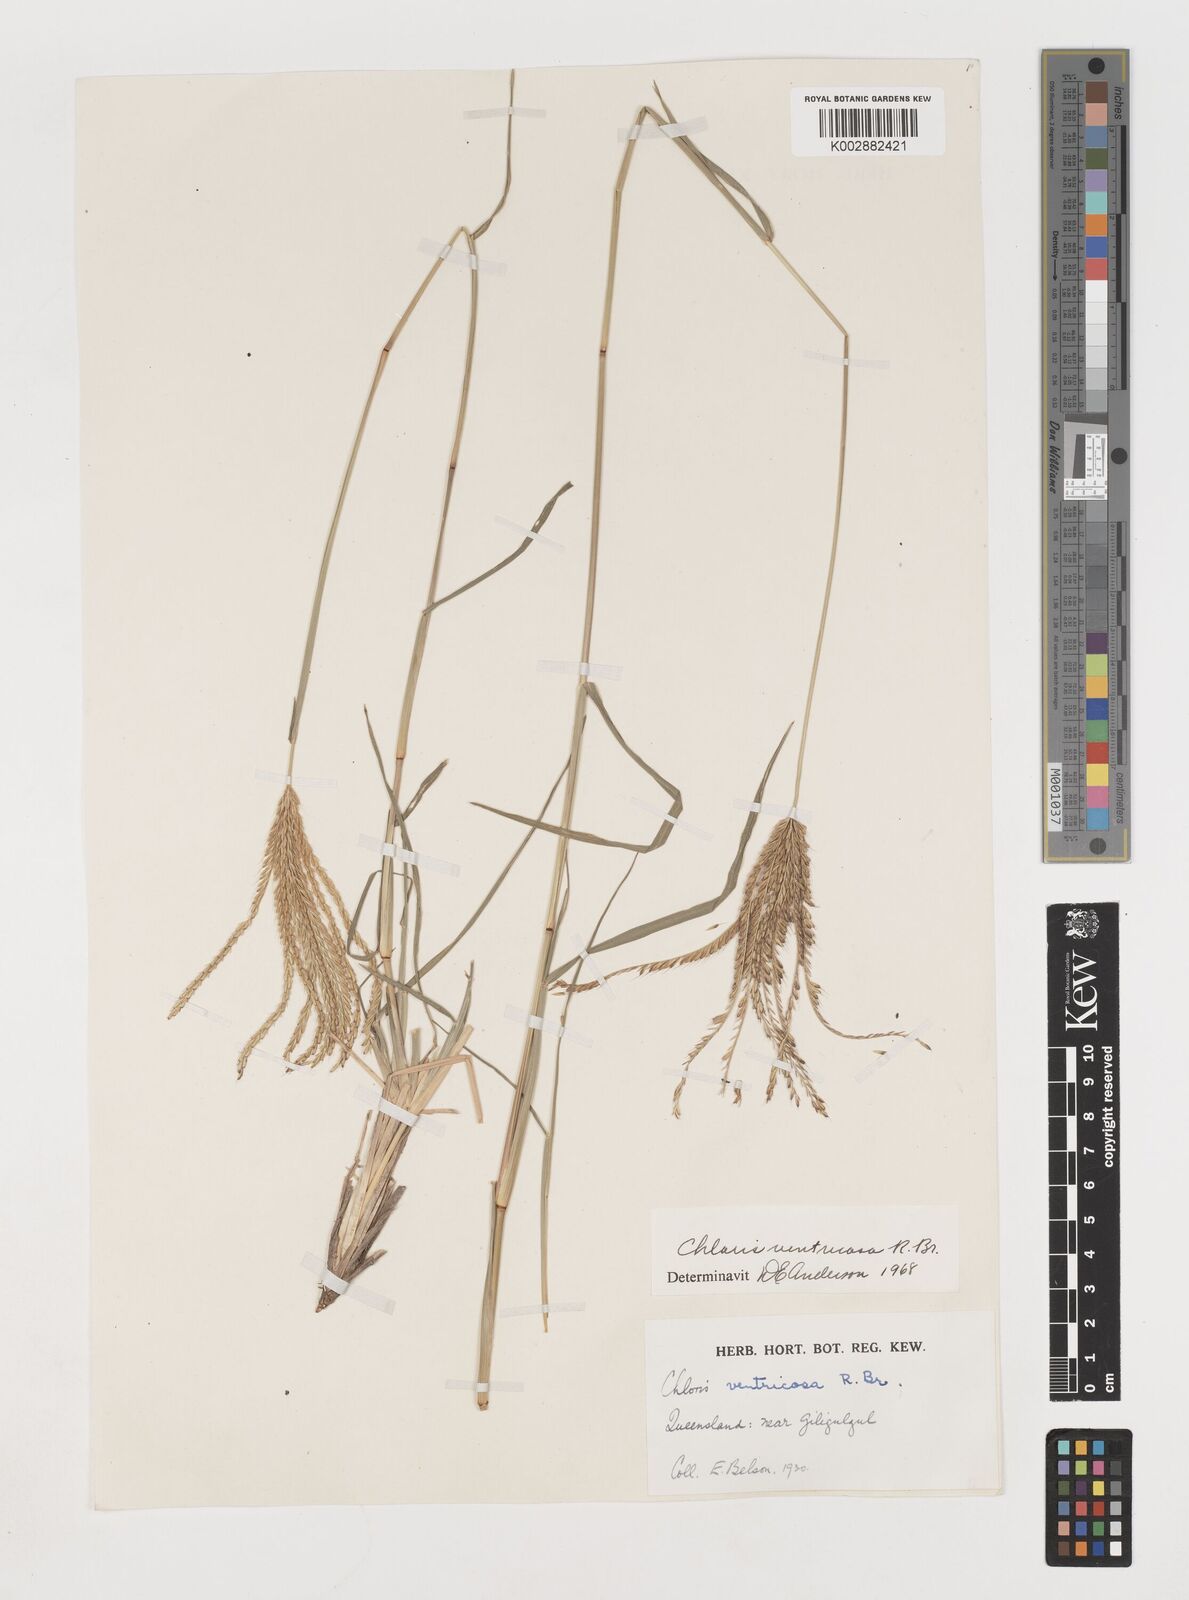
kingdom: Plantae
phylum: Tracheophyta
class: Liliopsida
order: Poales
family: Poaceae
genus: Chloris
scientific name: Chloris ventricosa
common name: Australian windmill grass
